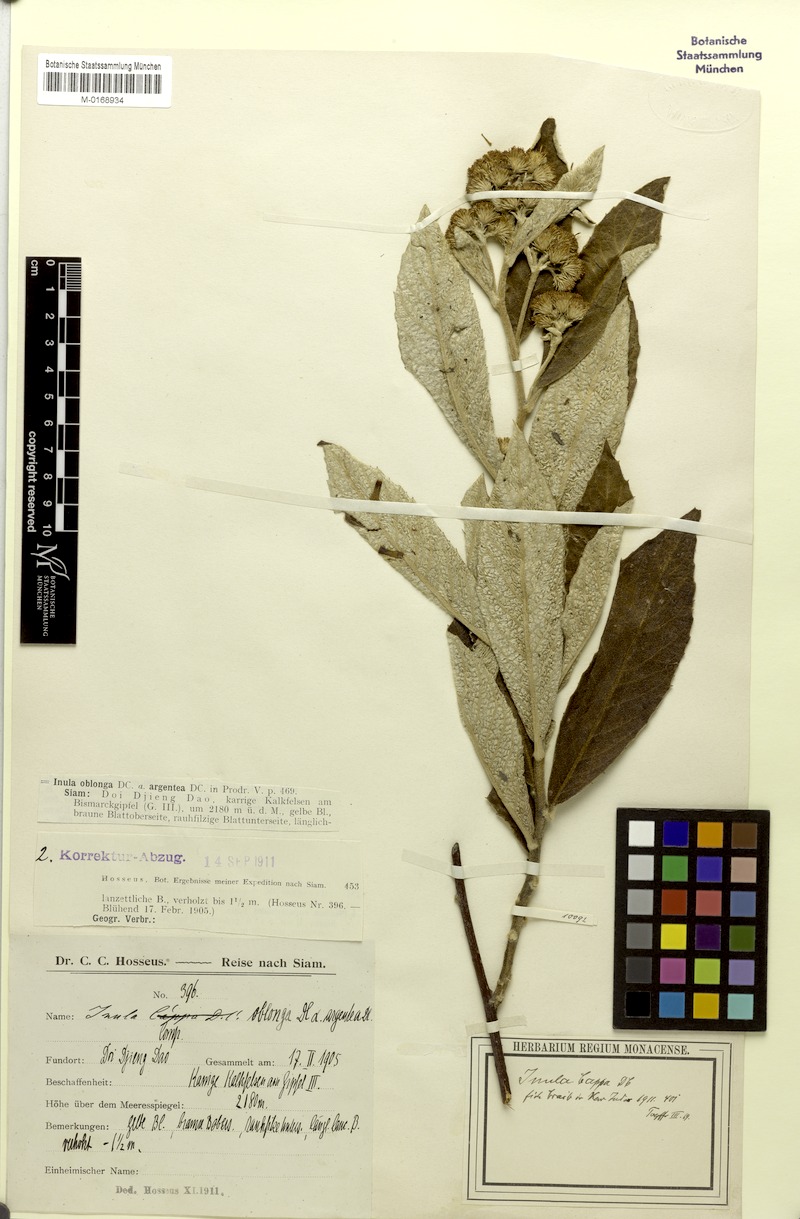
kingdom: Plantae
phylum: Tracheophyta
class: Magnoliopsida
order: Asterales
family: Asteraceae
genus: Duhaldea
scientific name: Duhaldea cappa
